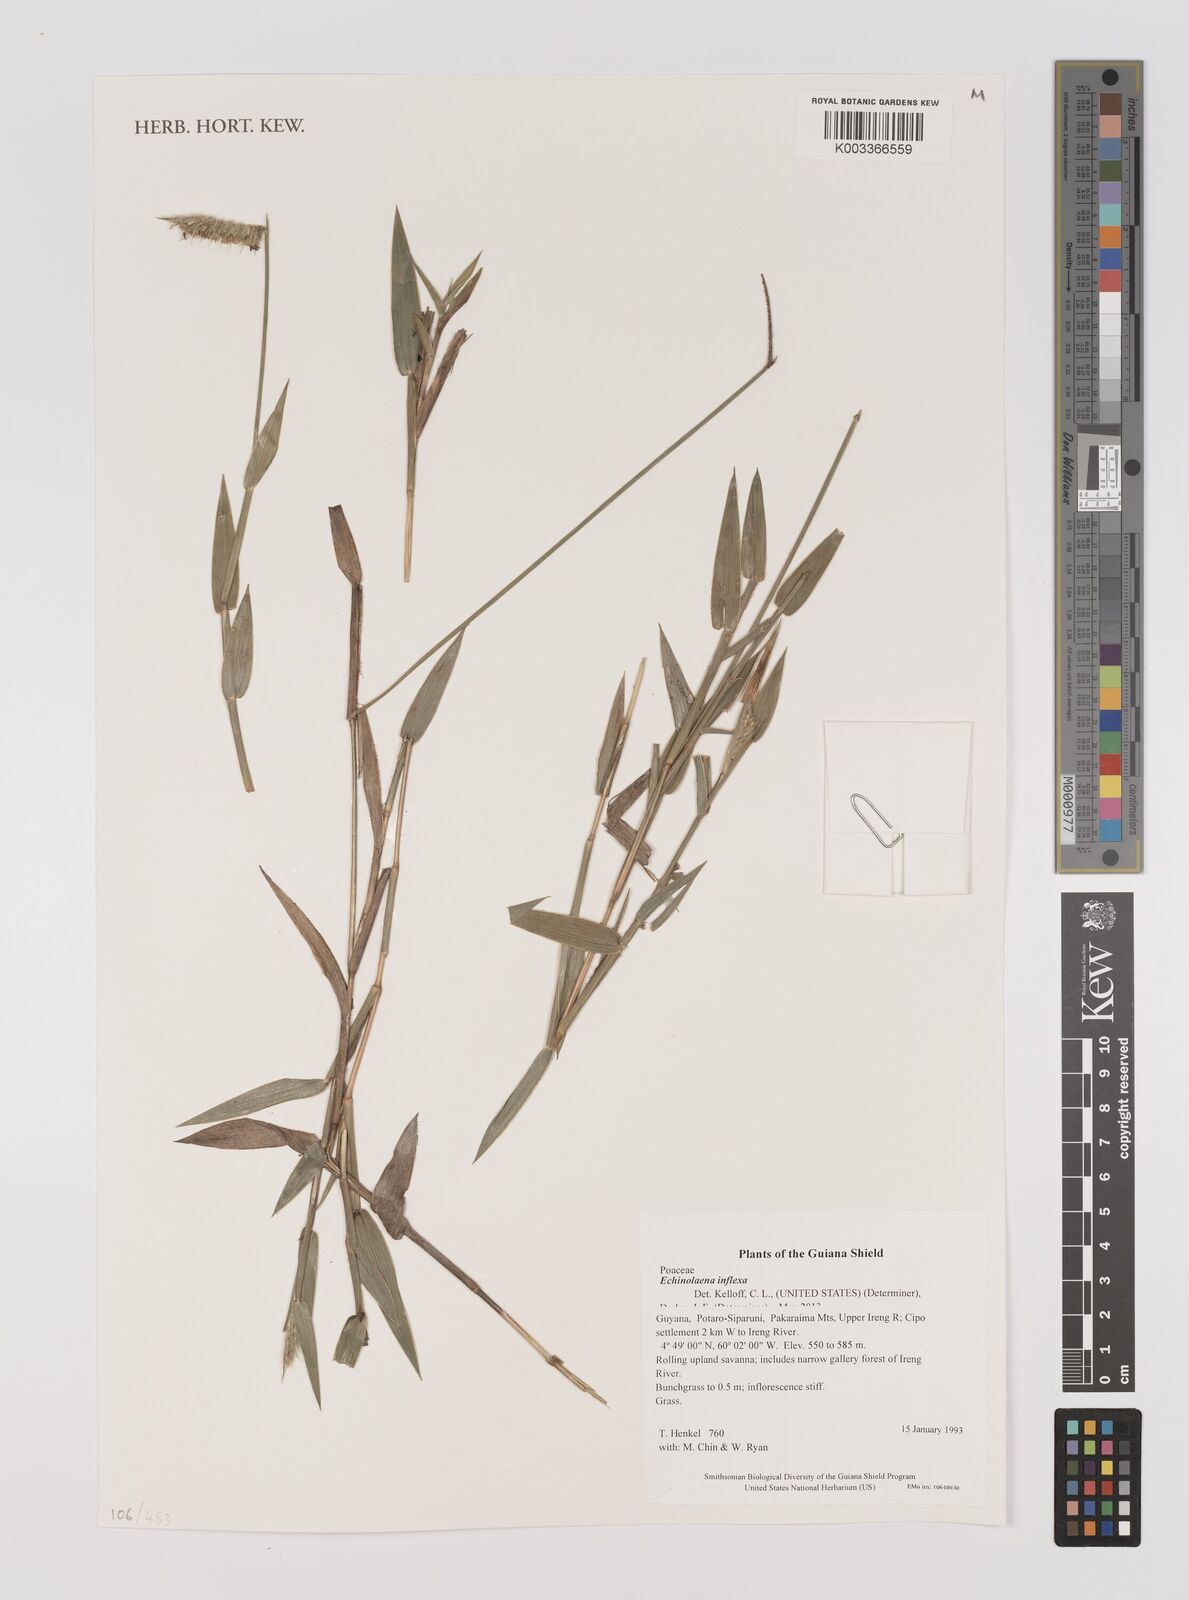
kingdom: Plantae
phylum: Tracheophyta
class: Liliopsida
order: Poales
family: Poaceae
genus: Echinolaena
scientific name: Echinolaena inflexa
